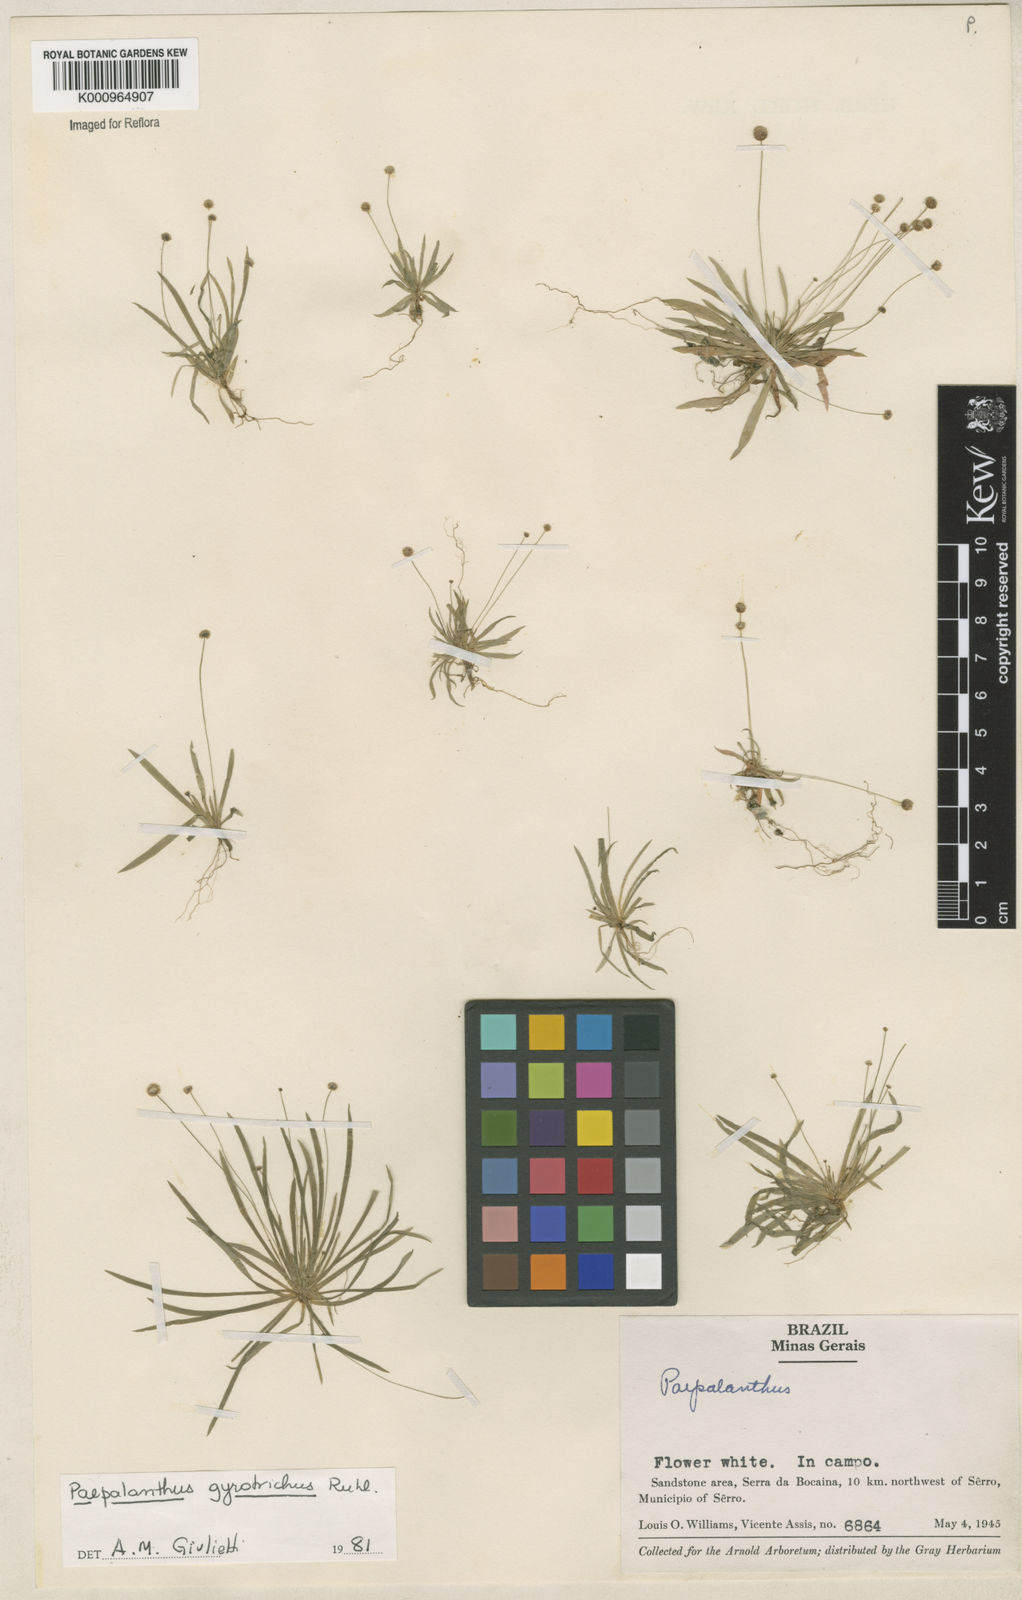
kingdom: Plantae
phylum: Tracheophyta
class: Liliopsida
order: Poales
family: Eriocaulaceae
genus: Paepalanthus
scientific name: Paepalanthus gyrotrichus
